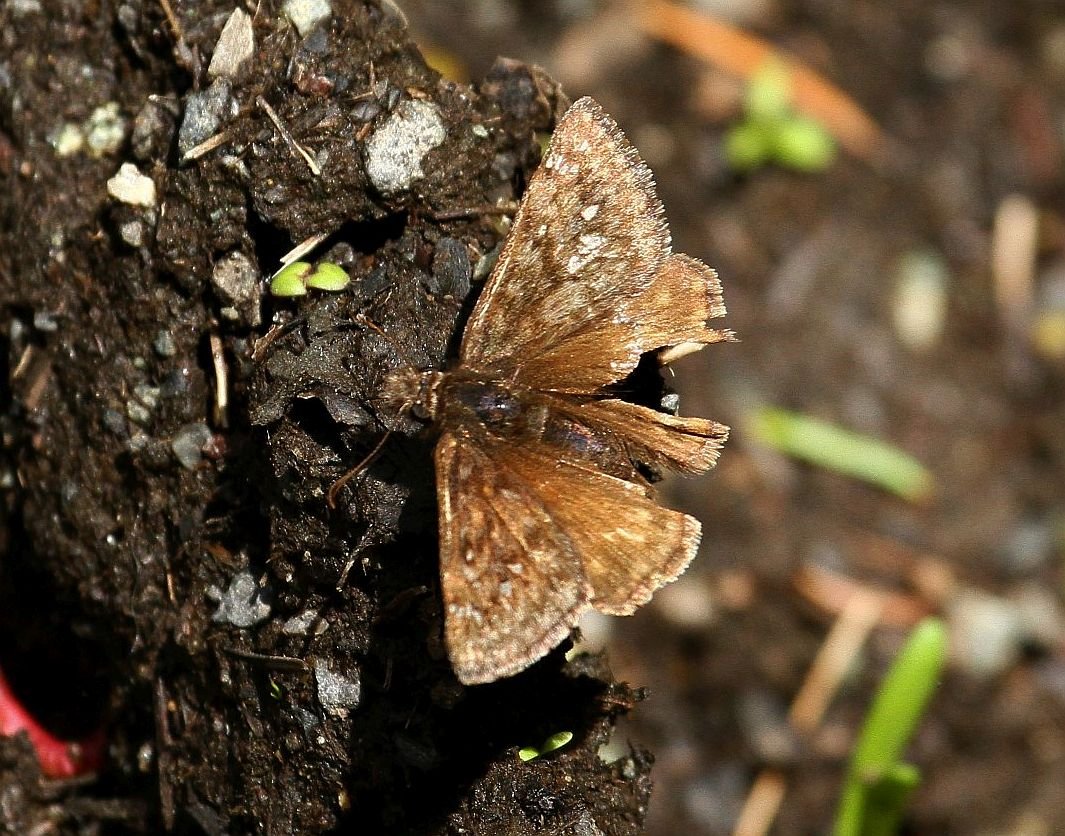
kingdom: Animalia
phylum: Arthropoda
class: Insecta
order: Lepidoptera
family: Hesperiidae
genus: Erynnis
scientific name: Erynnis propertius
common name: Propertius Duskywing
